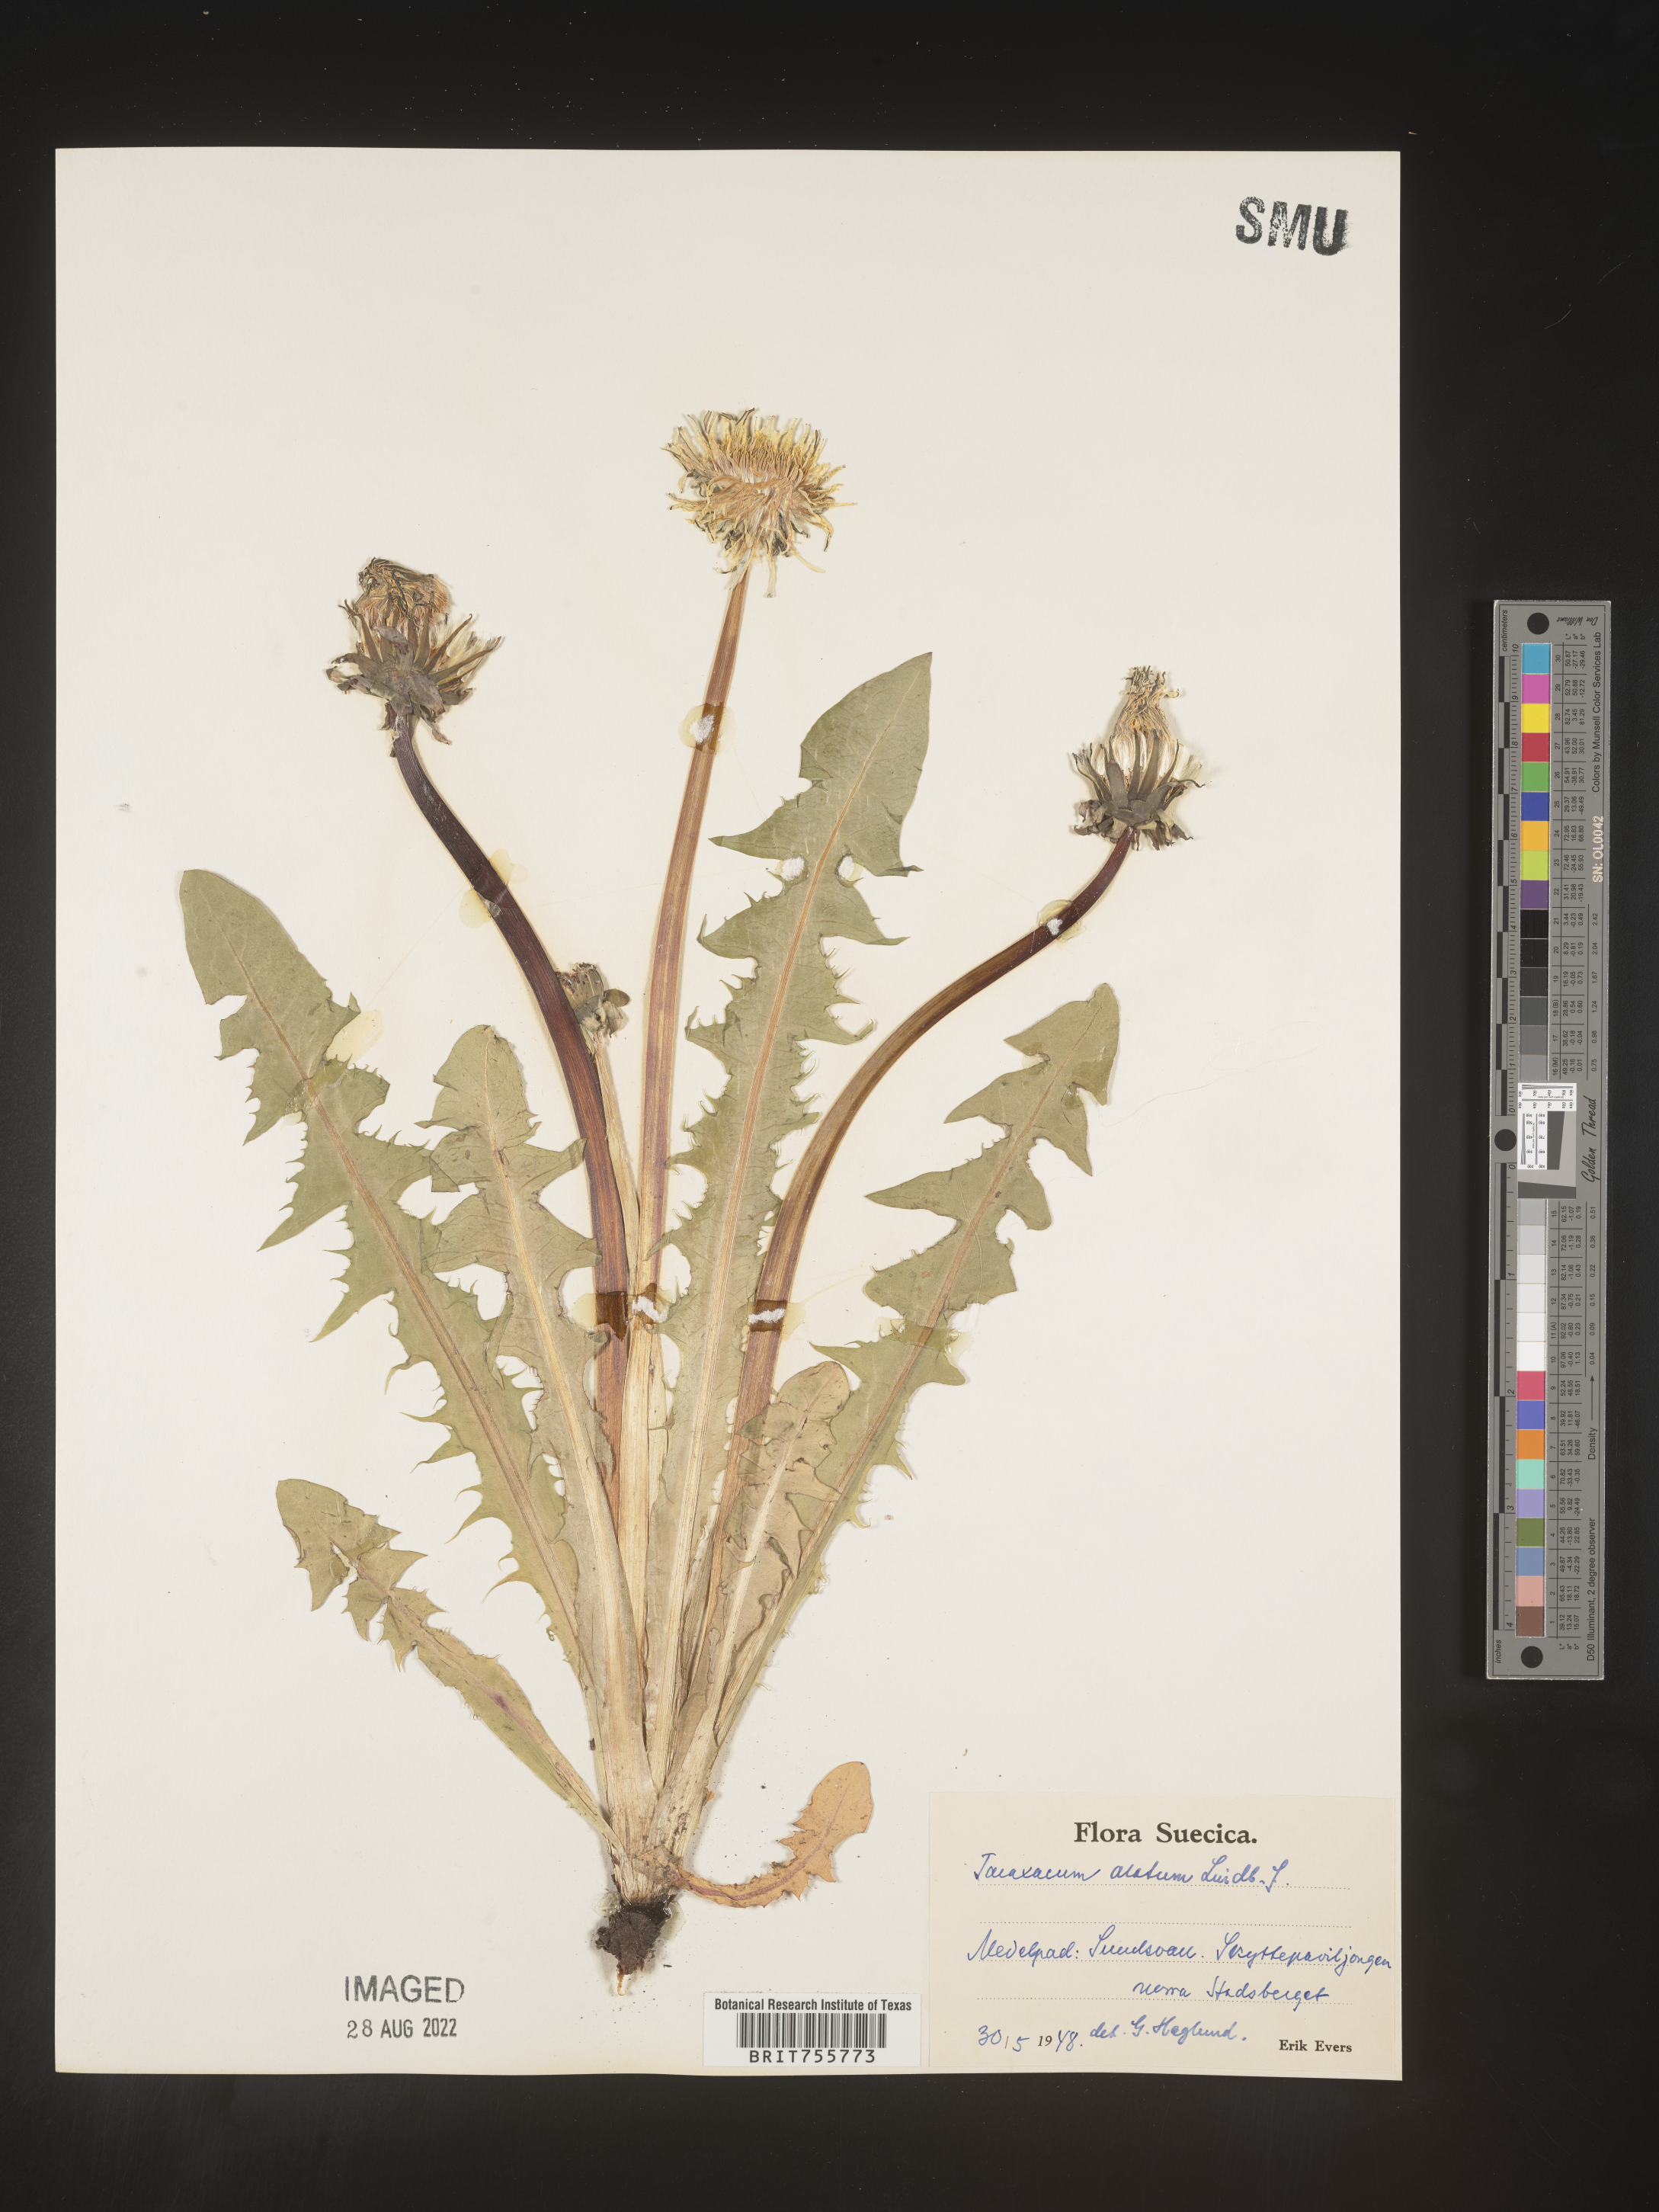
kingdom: Plantae
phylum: Tracheophyta
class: Magnoliopsida
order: Asterales
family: Asteraceae
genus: Taraxacum
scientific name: Taraxacum
